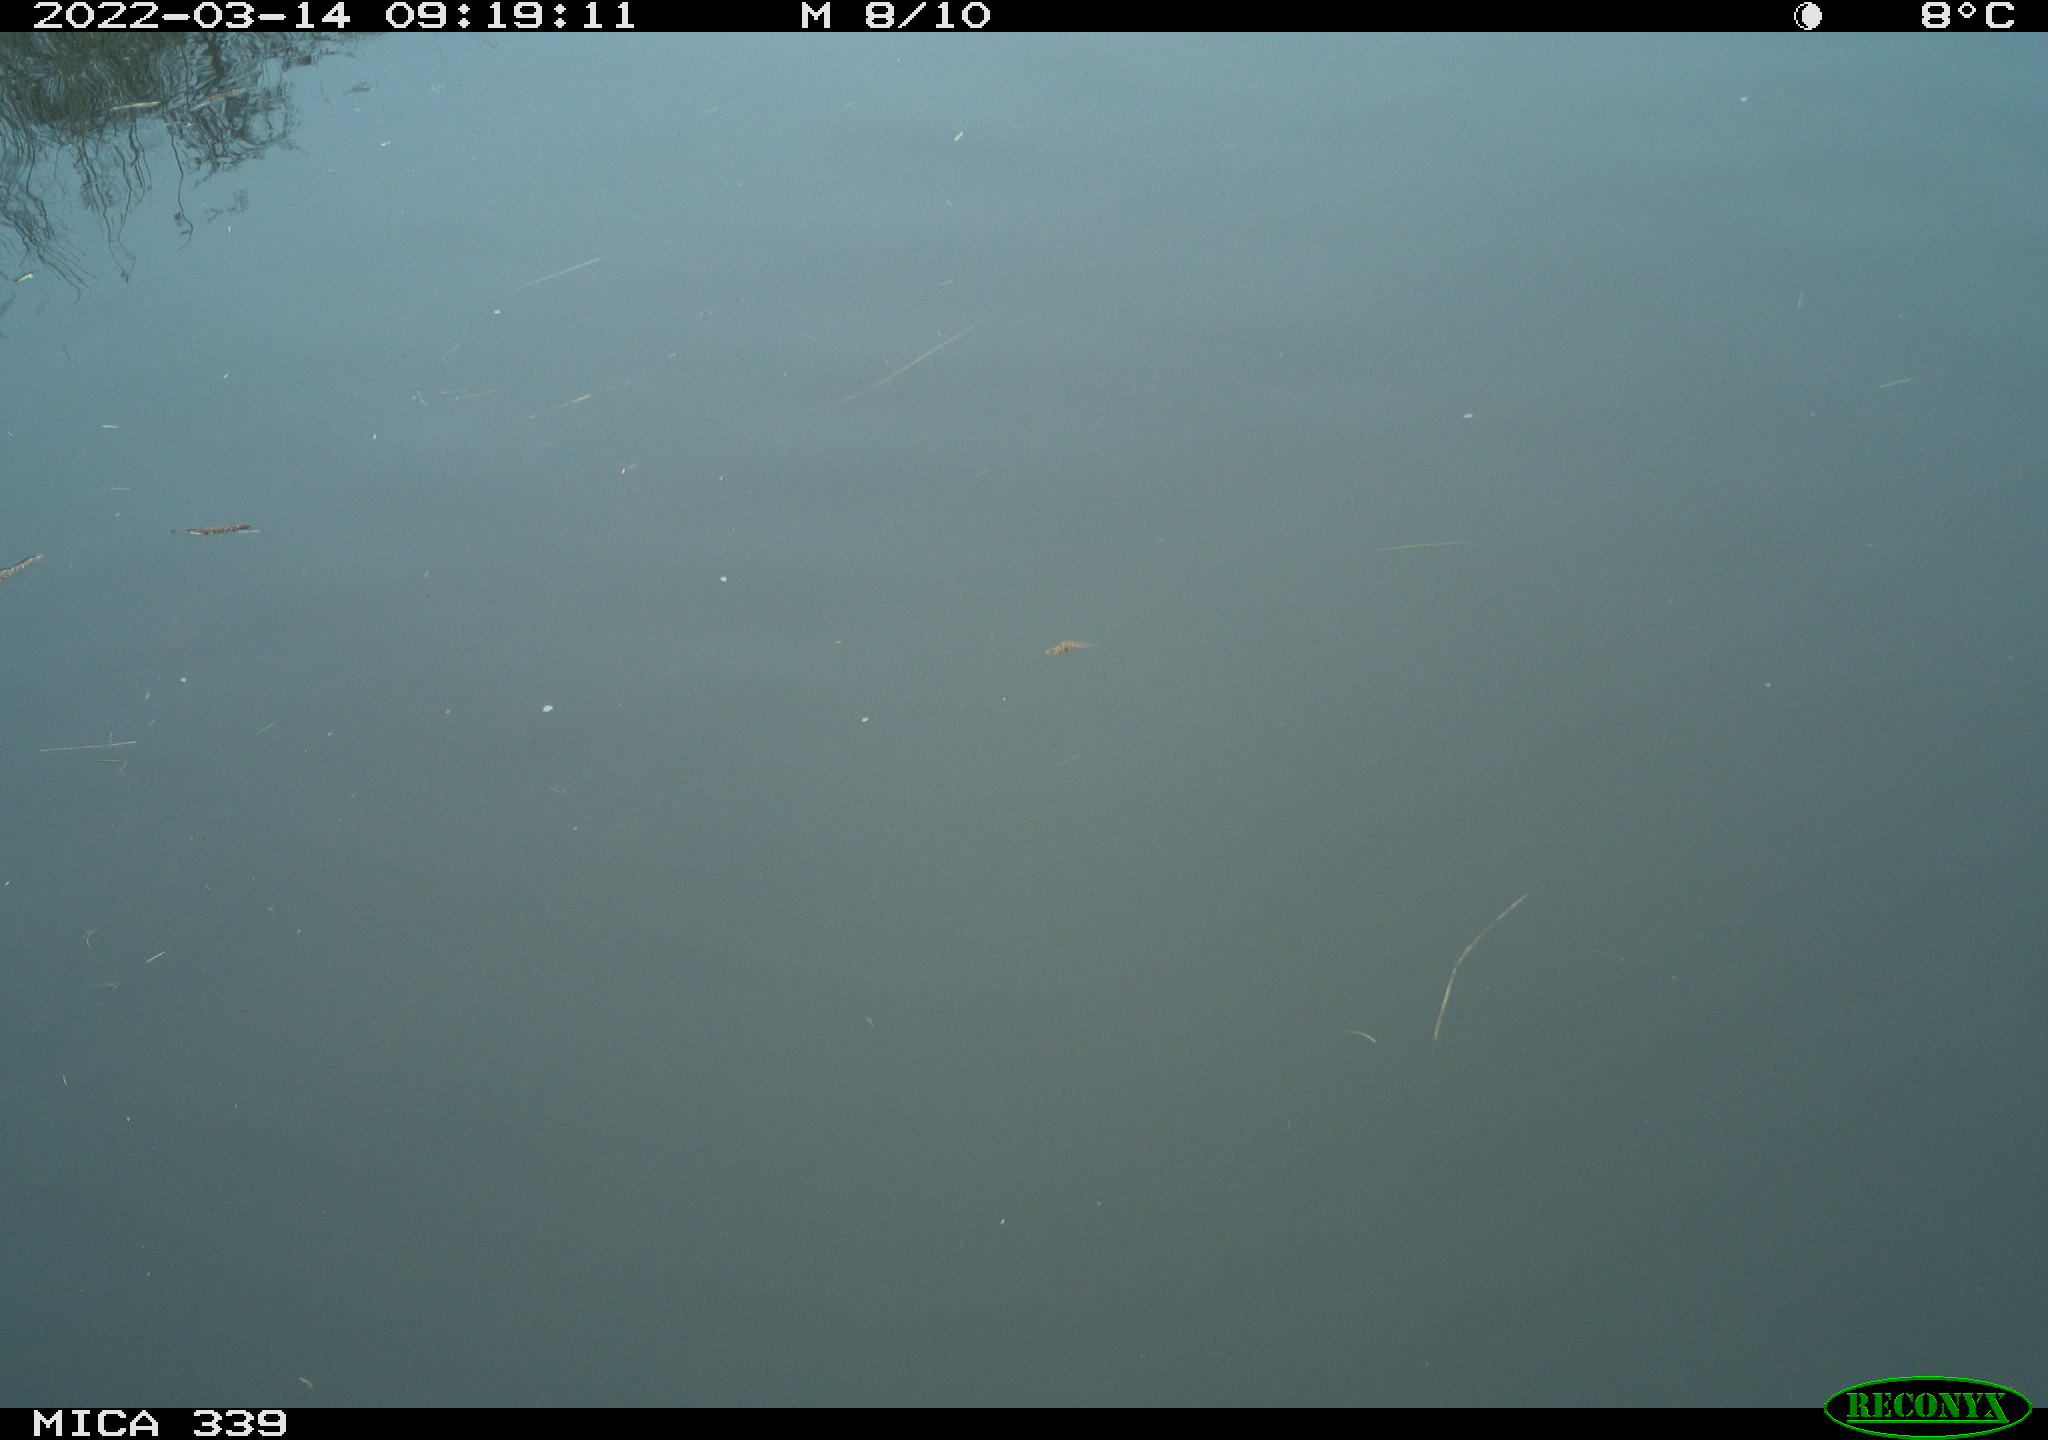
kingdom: Animalia
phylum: Chordata
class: Aves
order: Gruiformes
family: Rallidae
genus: Fulica
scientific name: Fulica atra
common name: Eurasian coot
